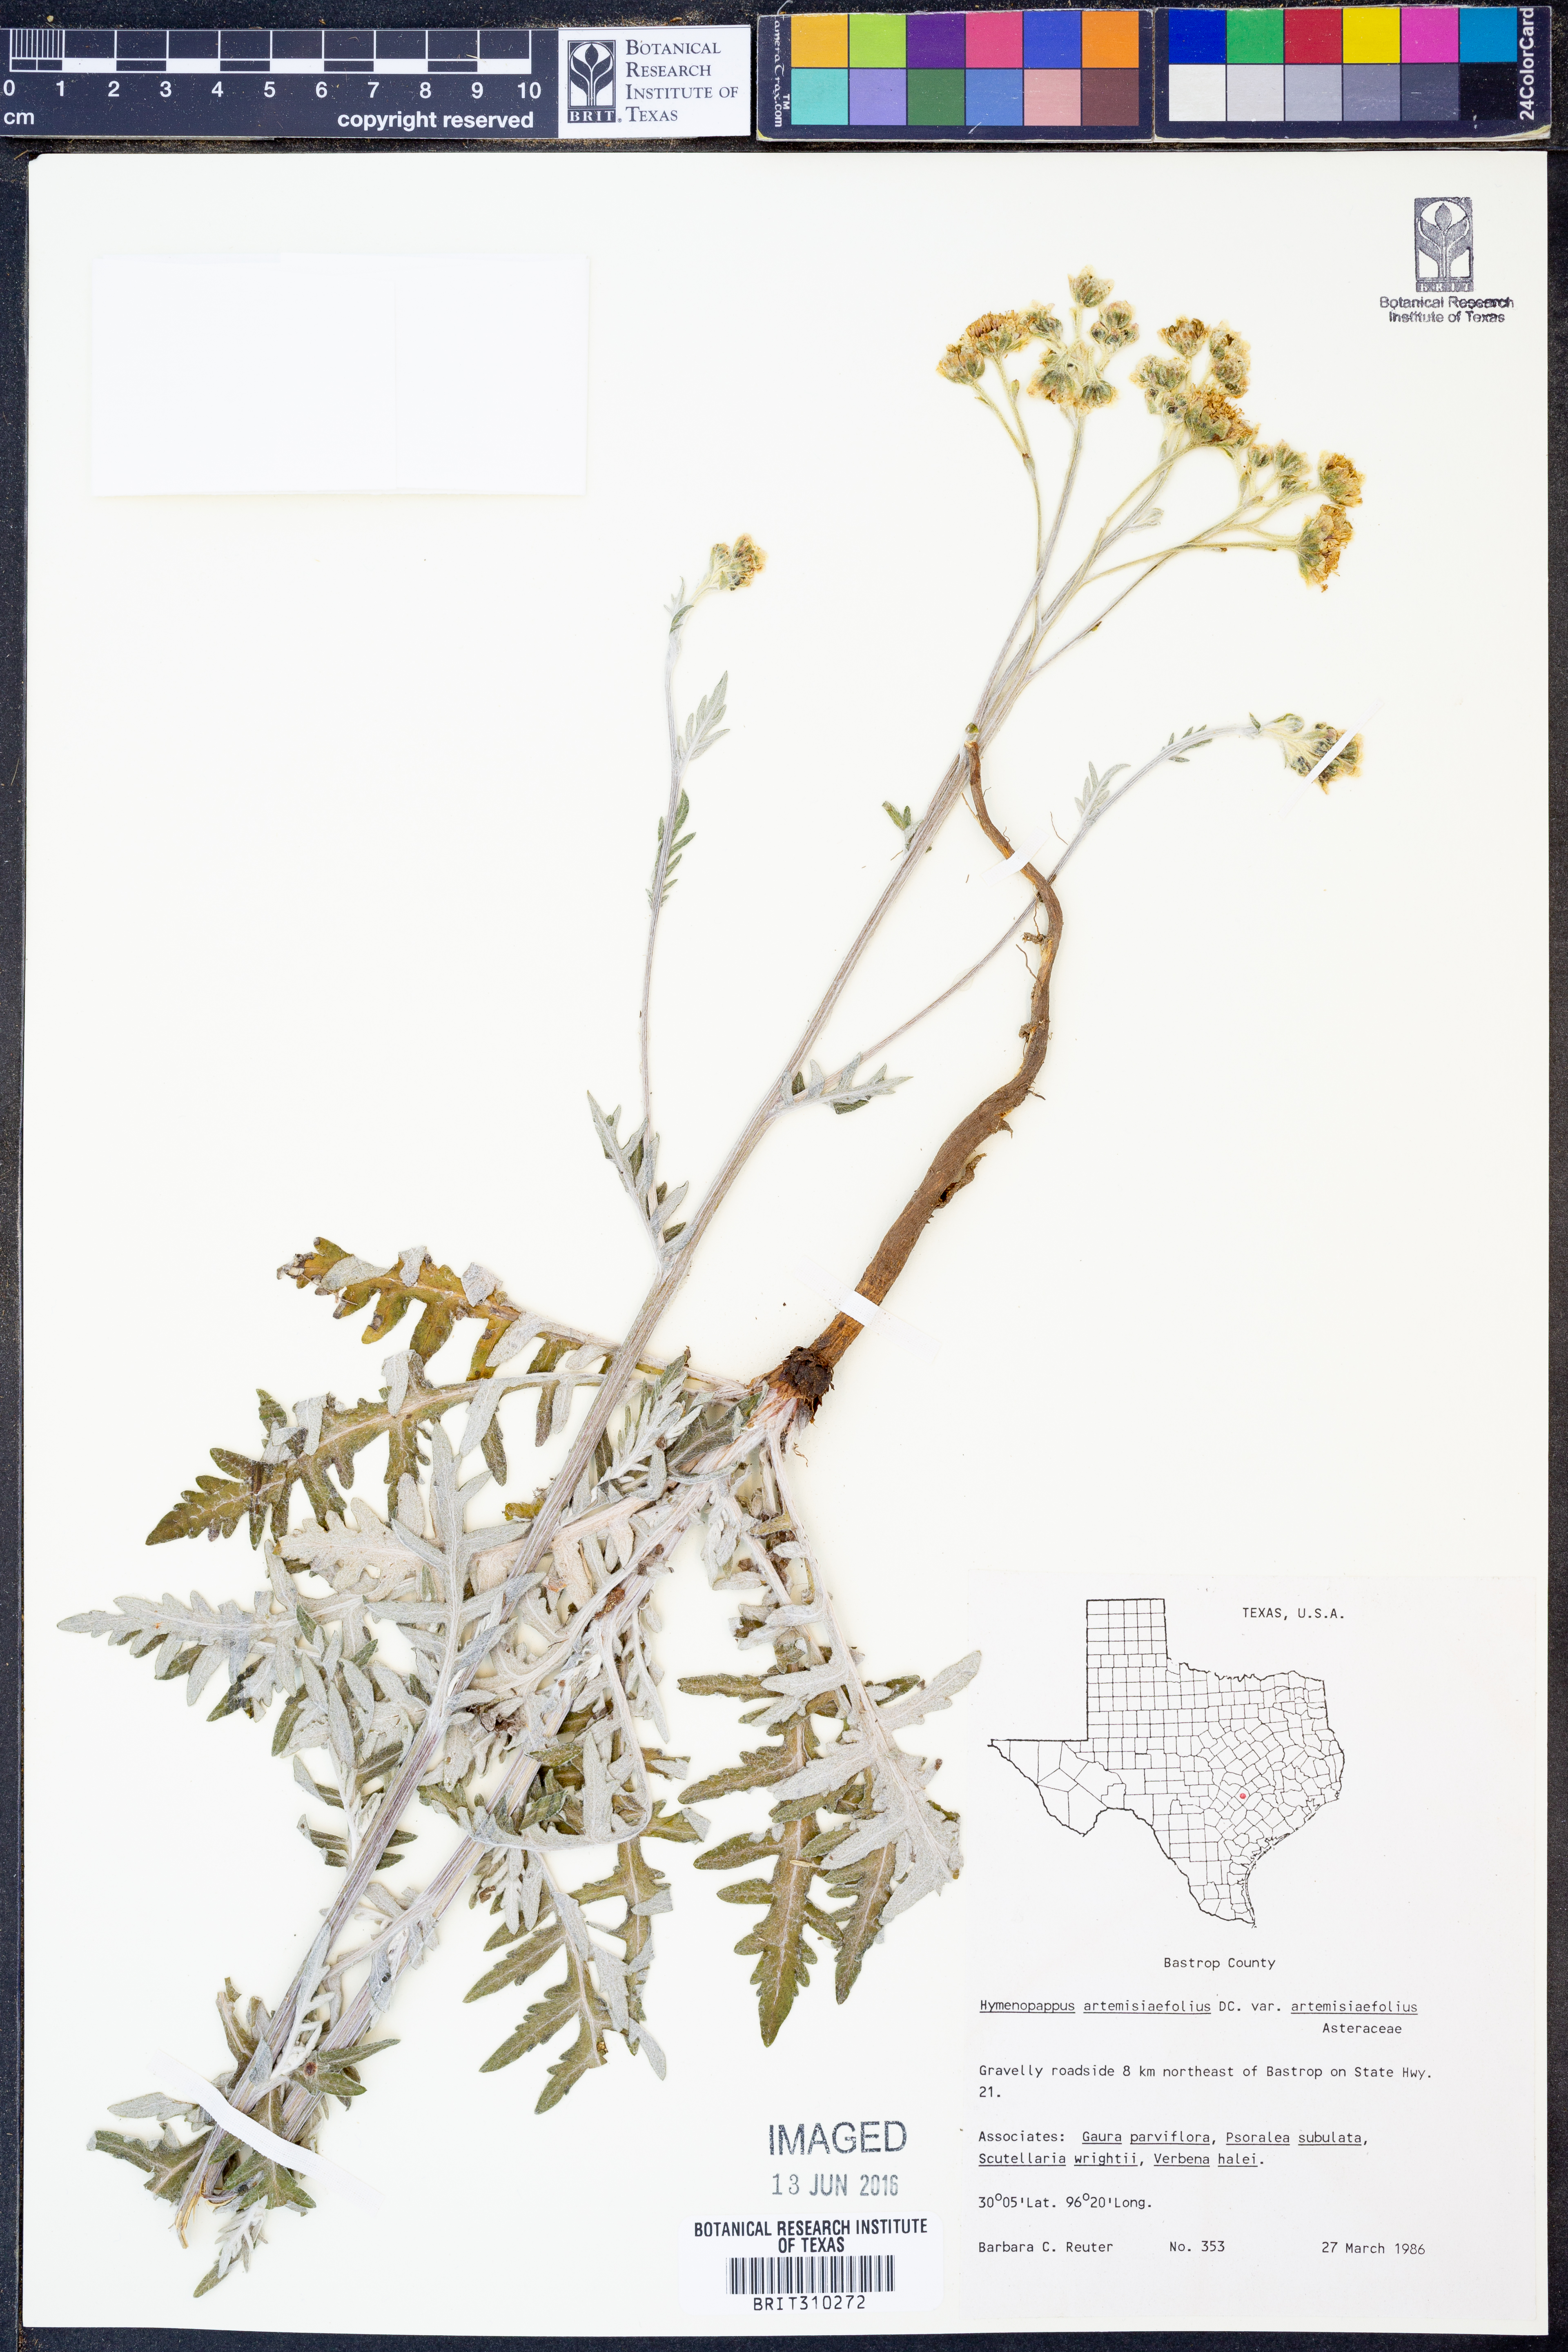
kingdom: Plantae
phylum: Tracheophyta
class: Magnoliopsida
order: Asterales
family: Asteraceae
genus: Hymenopappus
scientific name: Hymenopappus artemisiifolius
